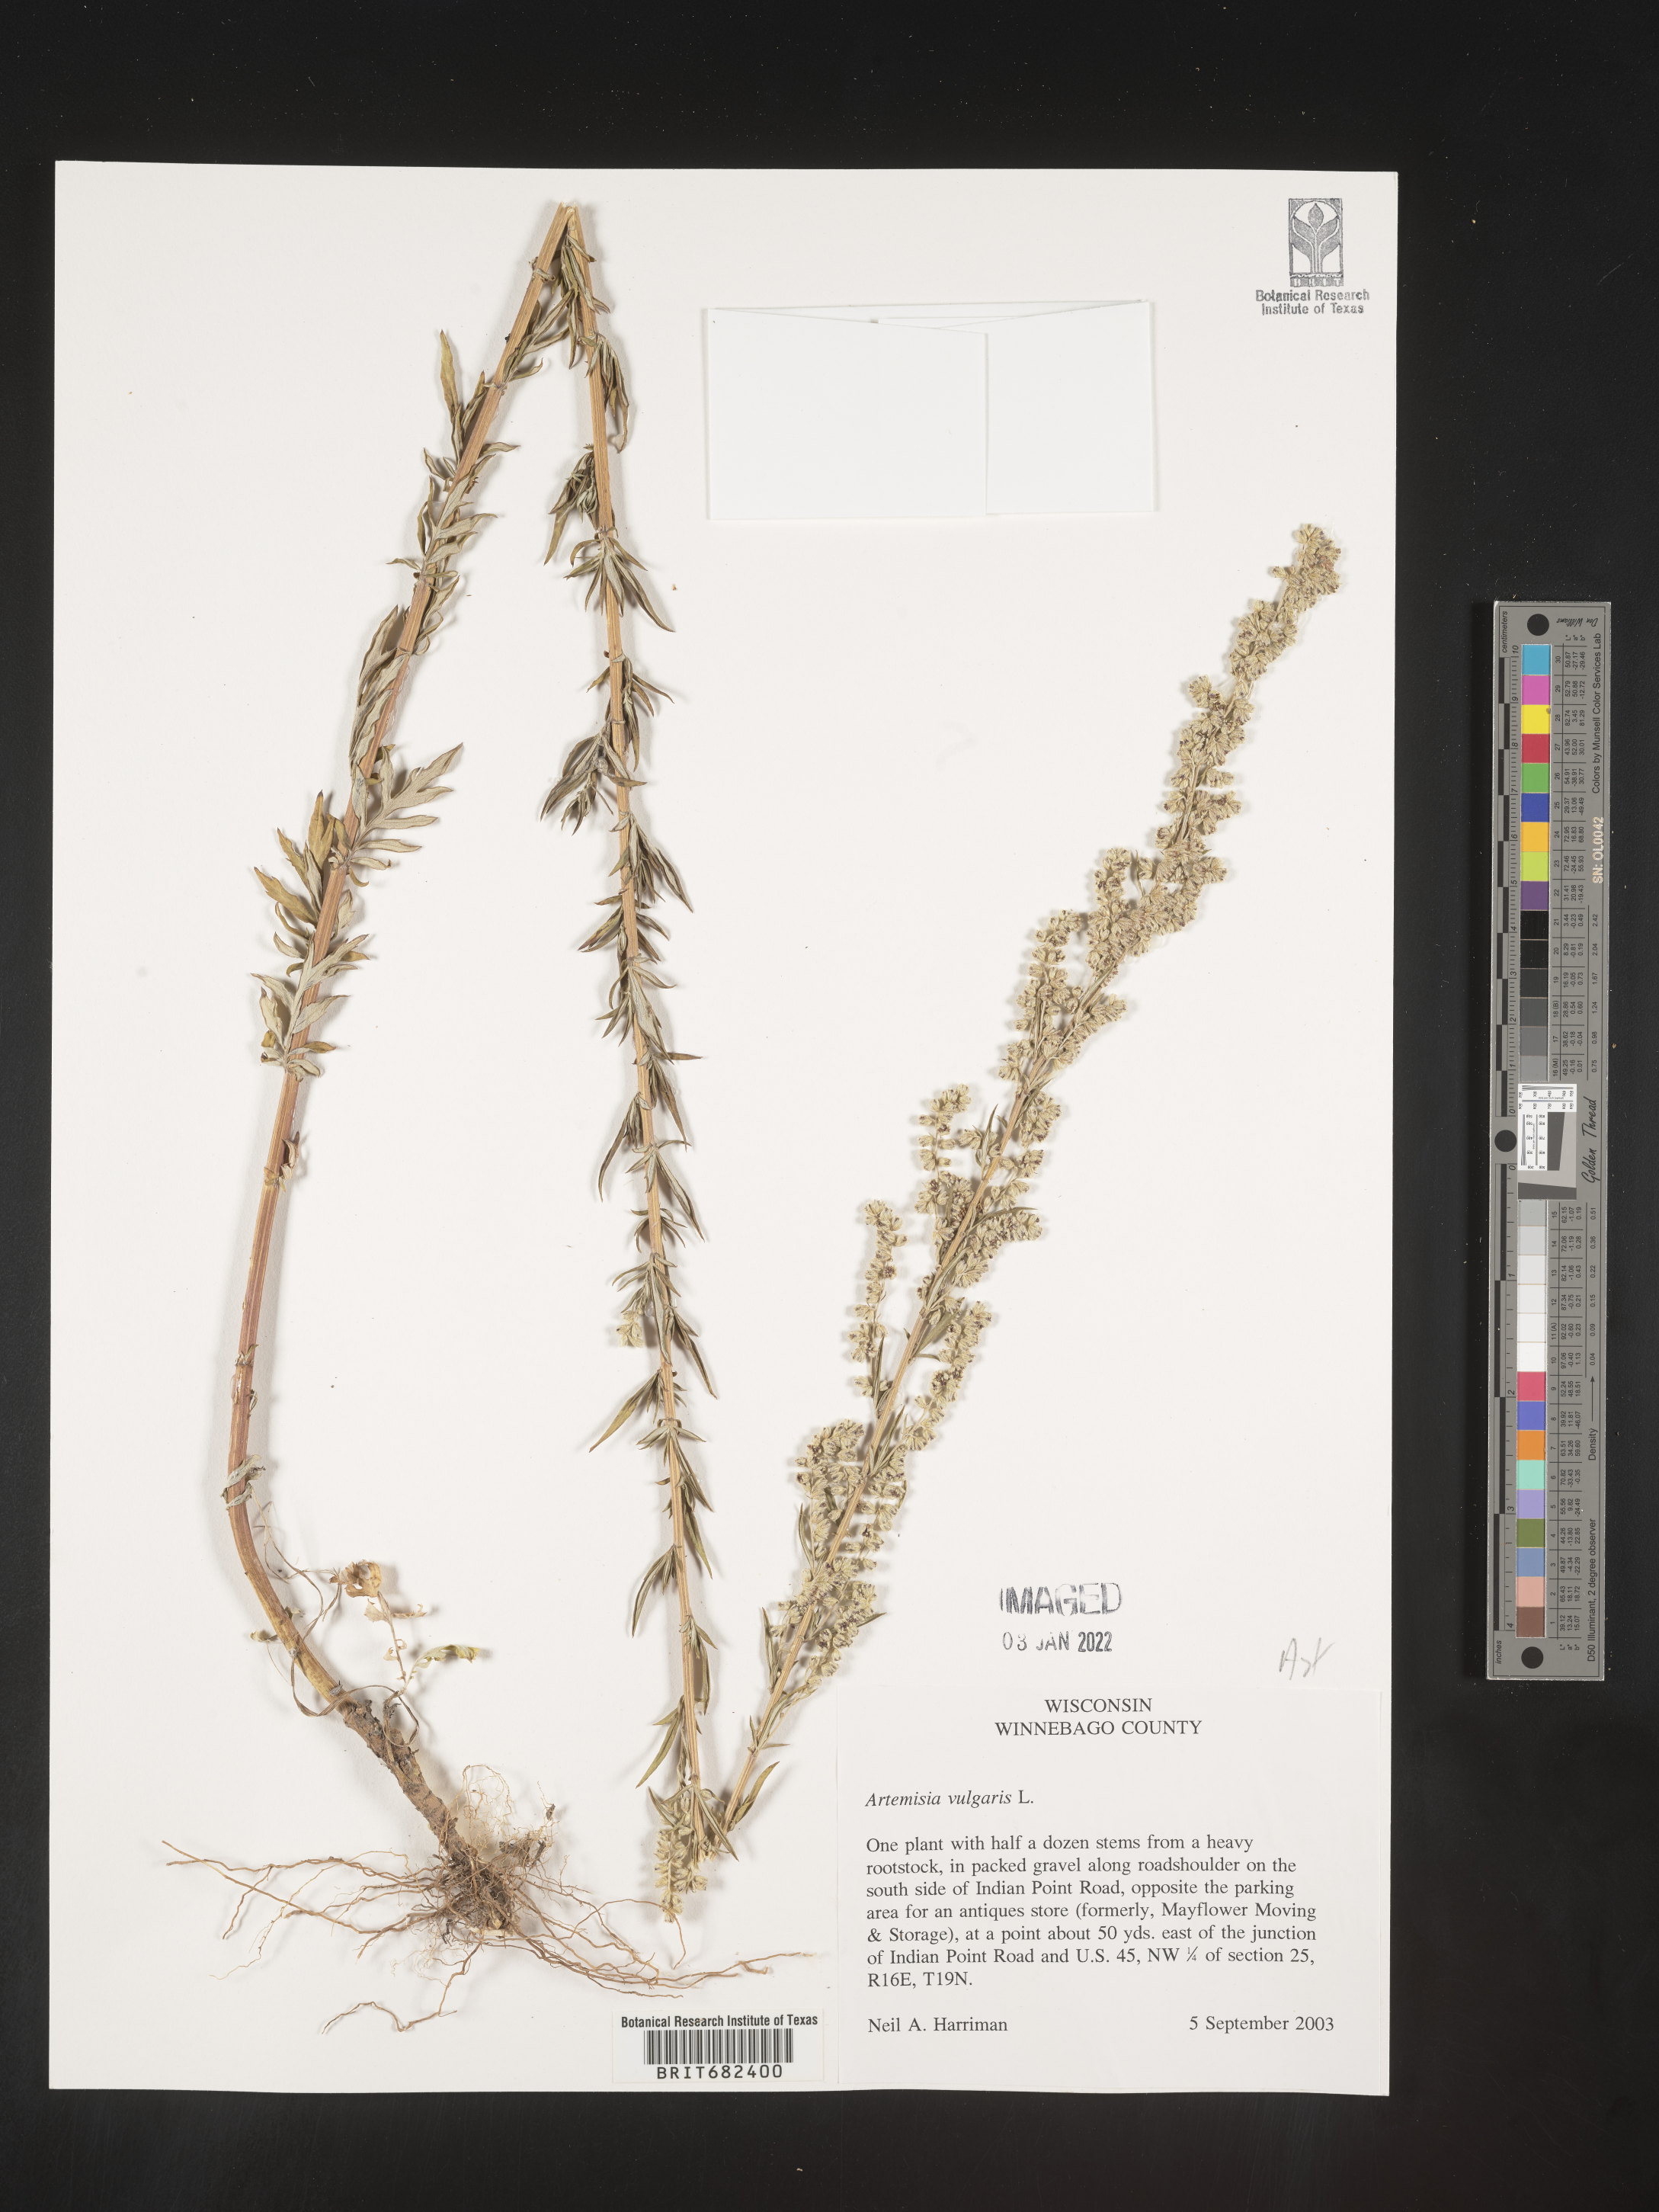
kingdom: Plantae
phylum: Tracheophyta
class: Magnoliopsida
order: Asterales
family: Asteraceae
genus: Artemisia
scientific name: Artemisia vulgaris
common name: Mugwort
